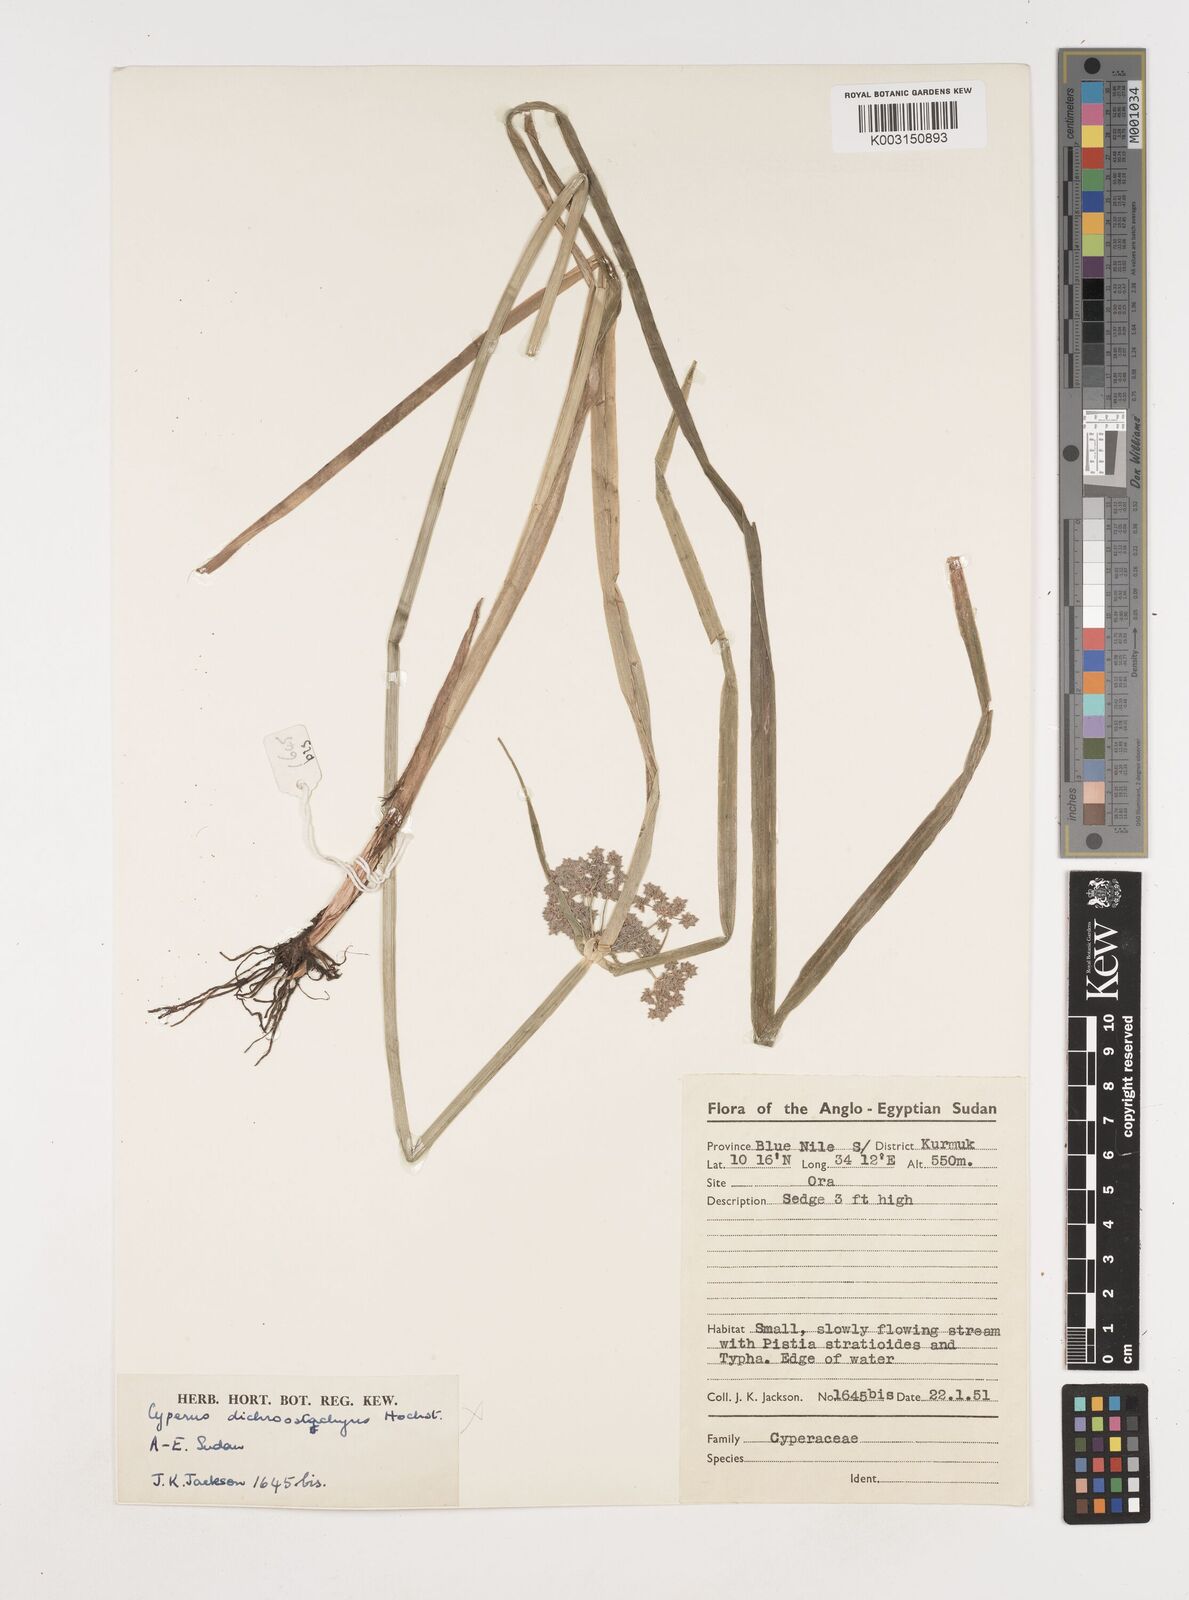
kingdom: Plantae
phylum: Tracheophyta
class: Liliopsida
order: Poales
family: Cyperaceae
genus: Cyperus
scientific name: Cyperus difformis
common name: Variable flatsedge
